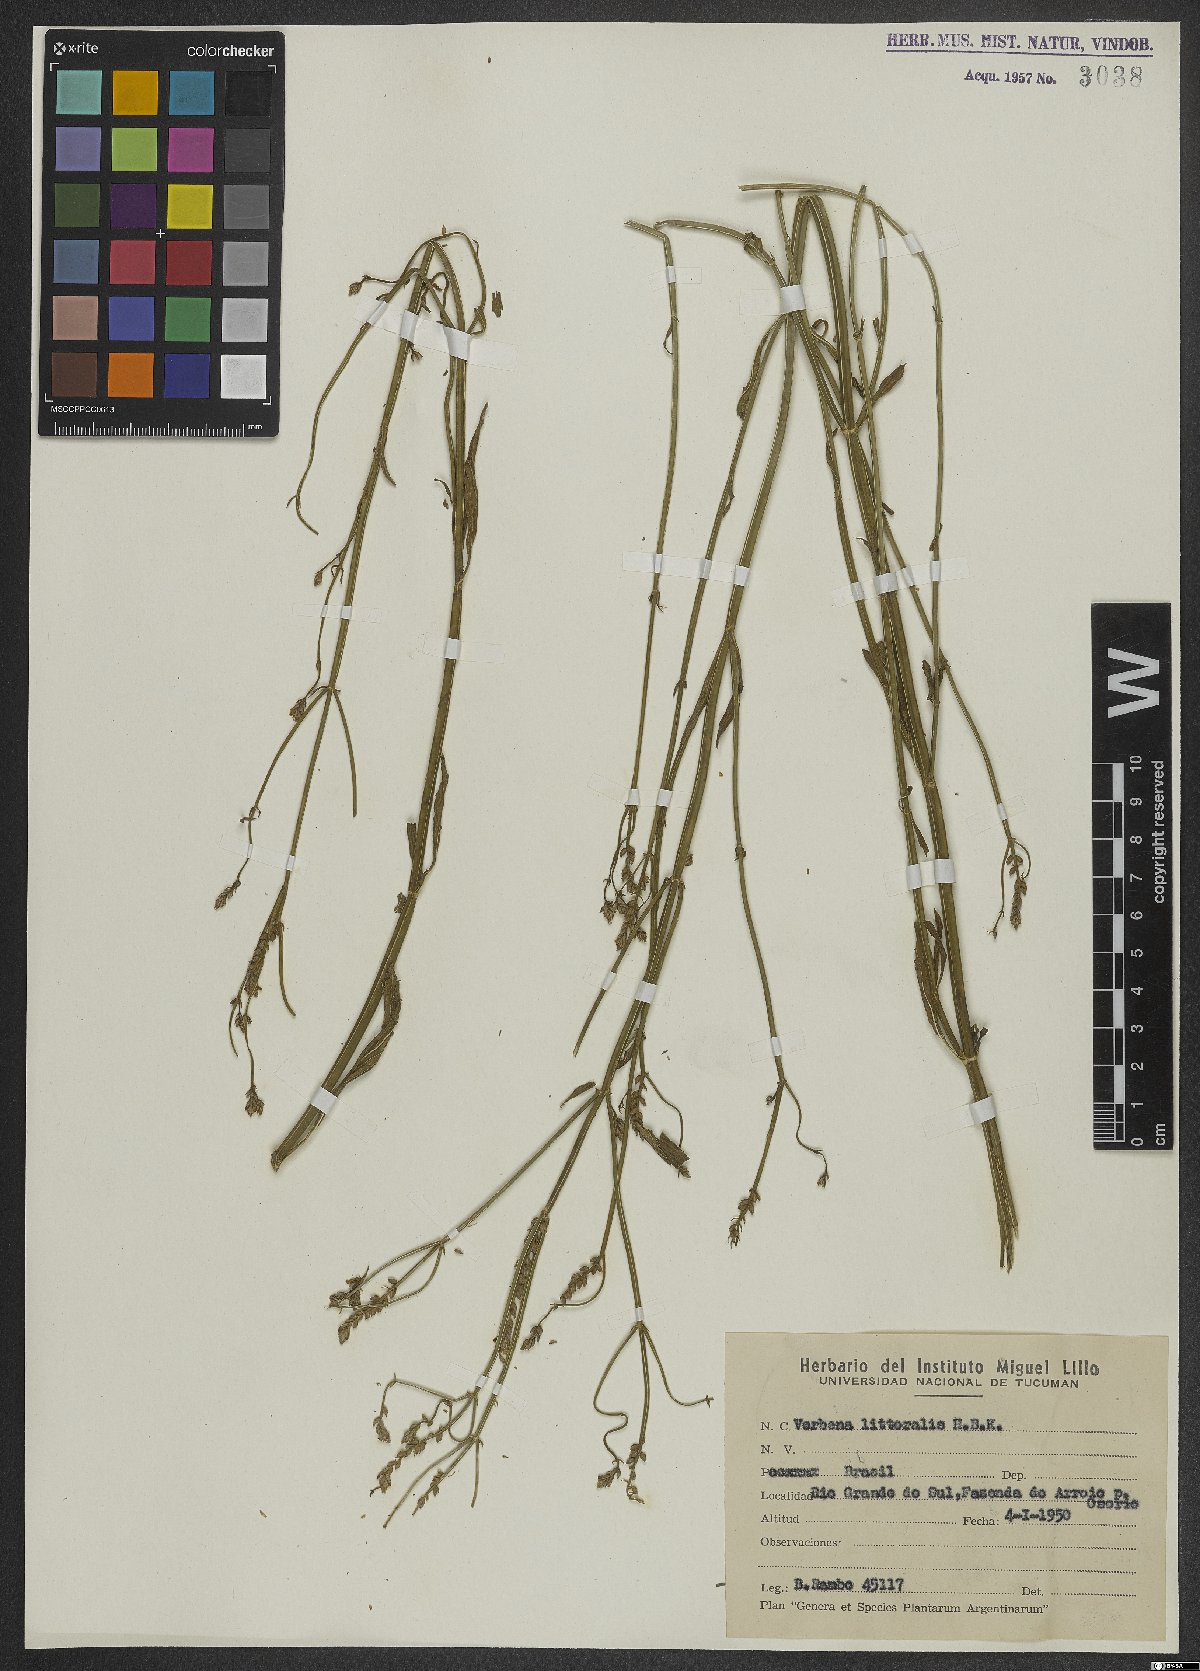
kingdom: Plantae
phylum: Tracheophyta
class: Magnoliopsida
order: Lamiales
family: Verbenaceae
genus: Verbena
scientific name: Verbena litoralis
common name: Seashore vervain
